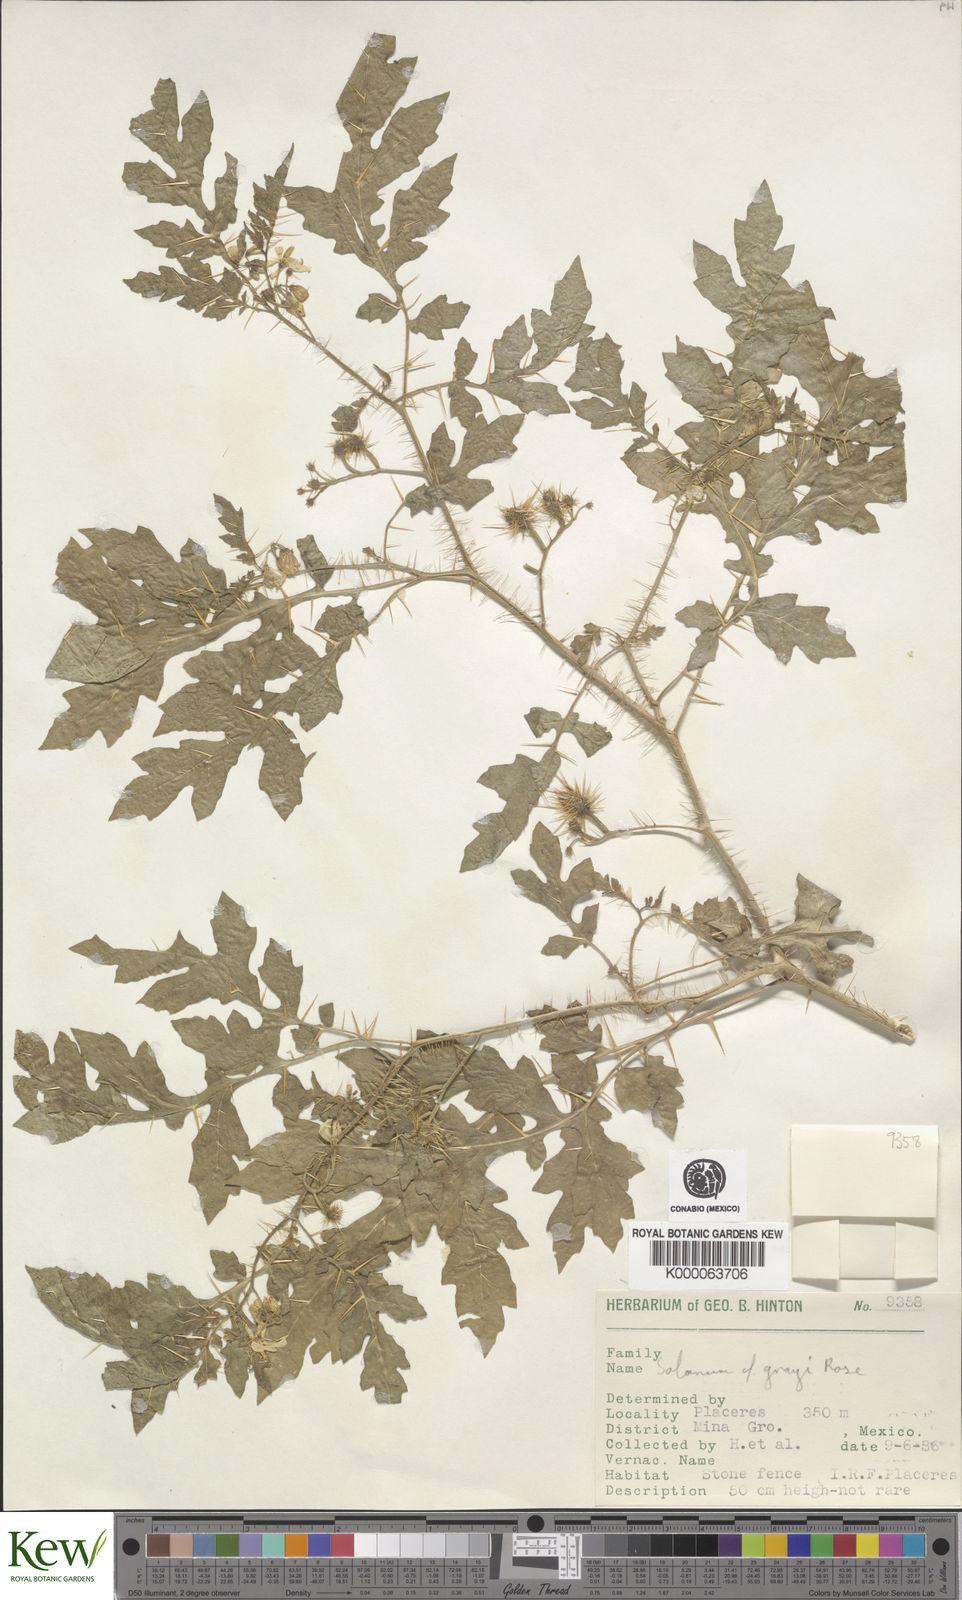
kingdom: Plantae
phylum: Tracheophyta
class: Magnoliopsida
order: Solanales
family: Solanaceae
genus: Solanum
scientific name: Solanum grayi
